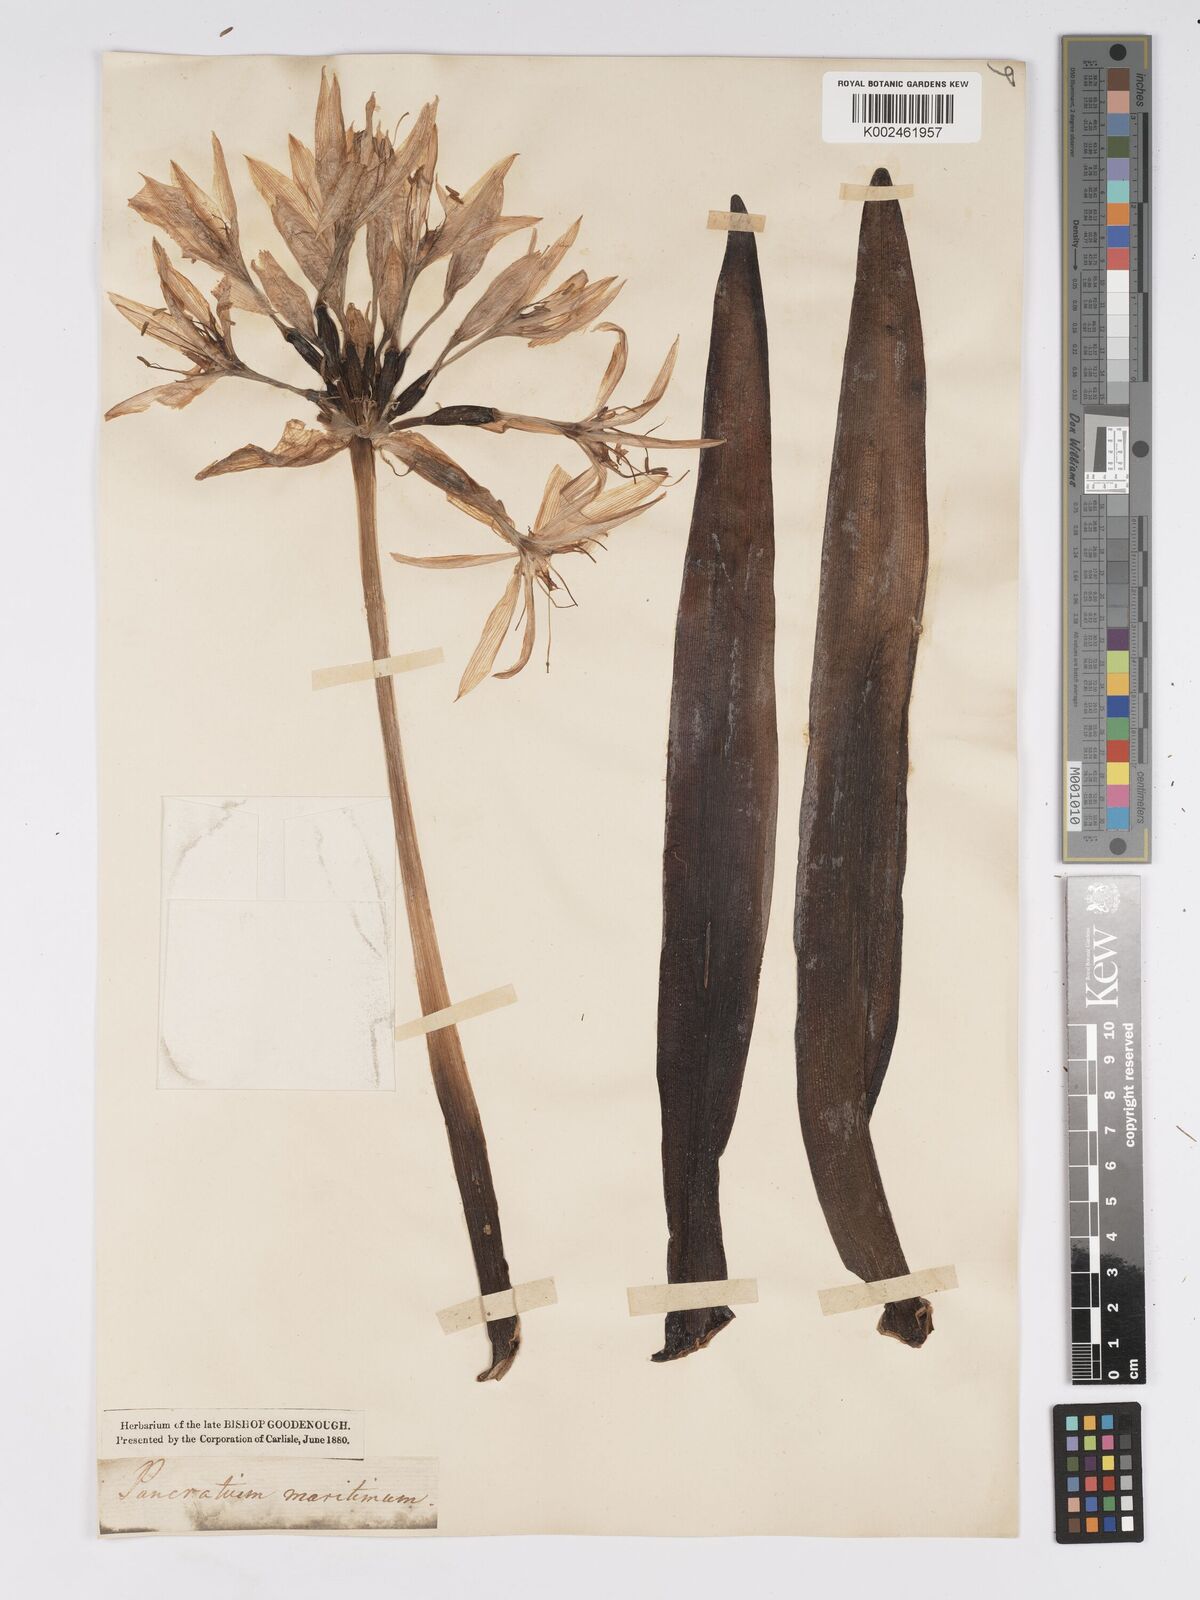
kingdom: Plantae
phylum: Tracheophyta
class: Liliopsida
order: Asparagales
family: Amaryllidaceae
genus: Pancratium
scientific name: Pancratium illyricum
